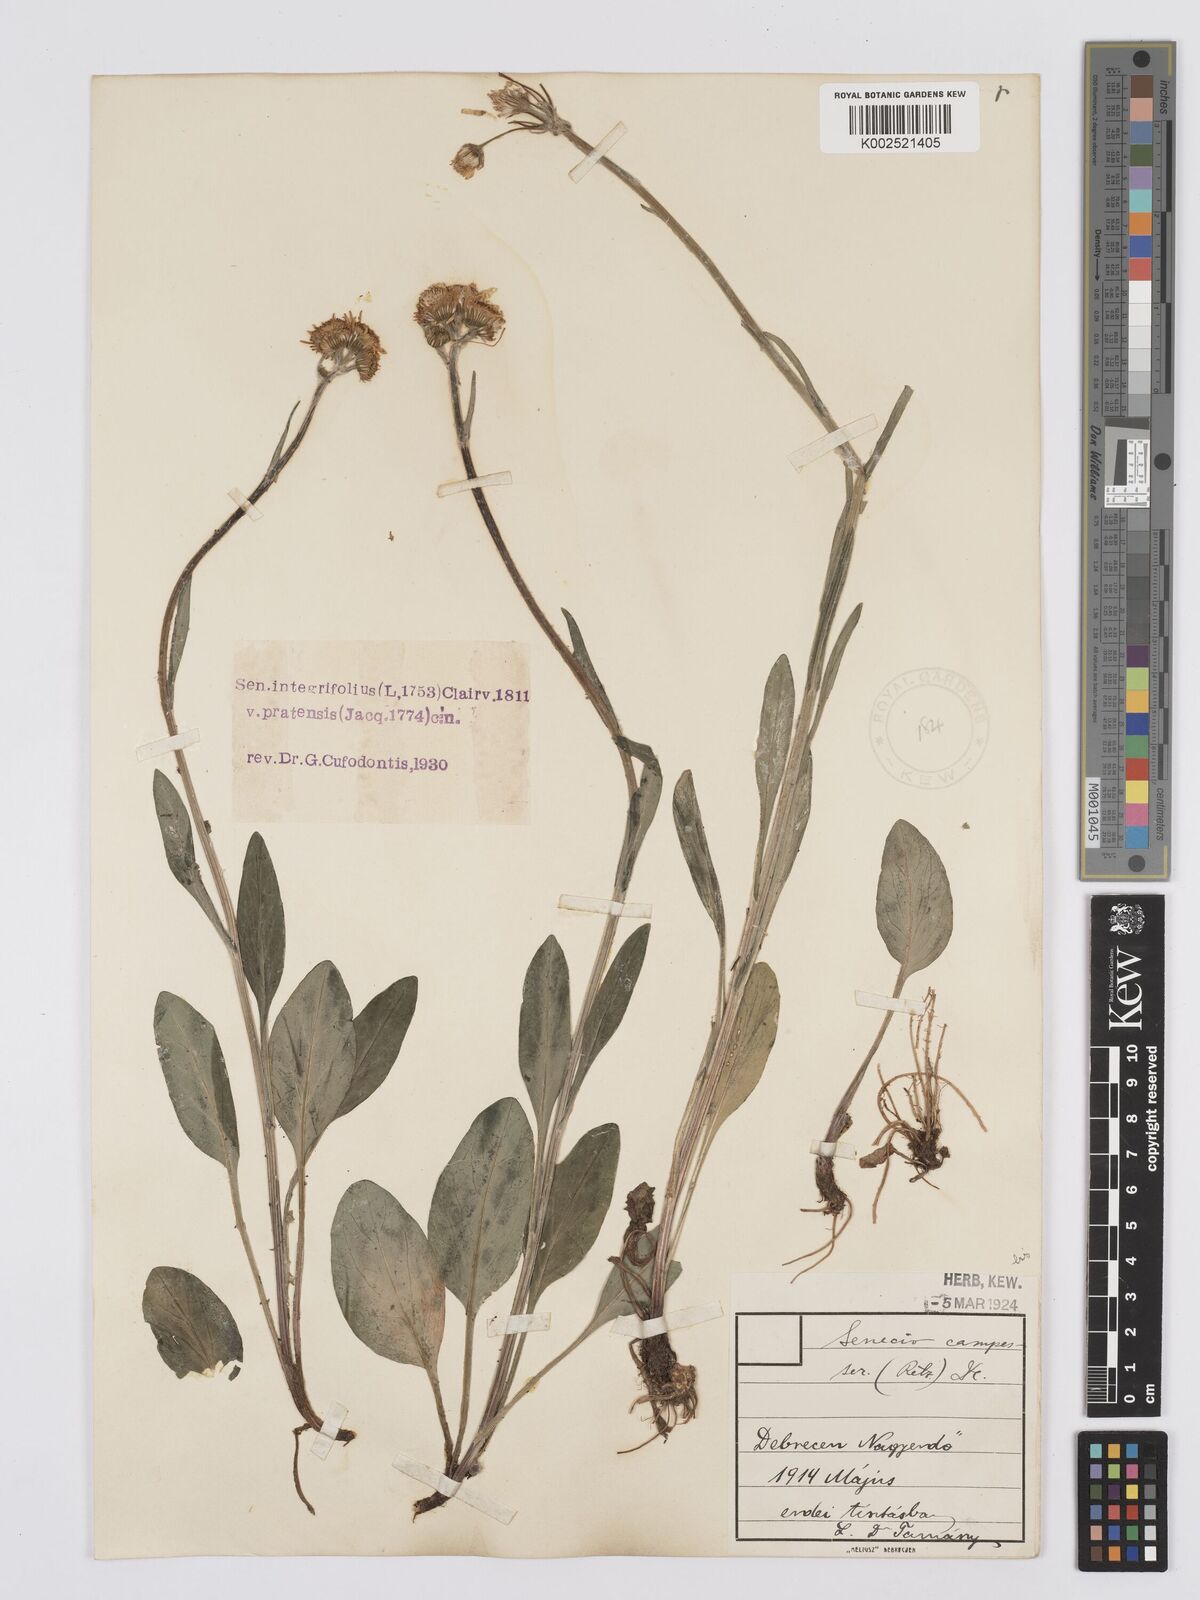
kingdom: Plantae
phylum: Tracheophyta
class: Magnoliopsida
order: Asterales
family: Asteraceae
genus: Tephroseris
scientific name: Tephroseris helenitis
